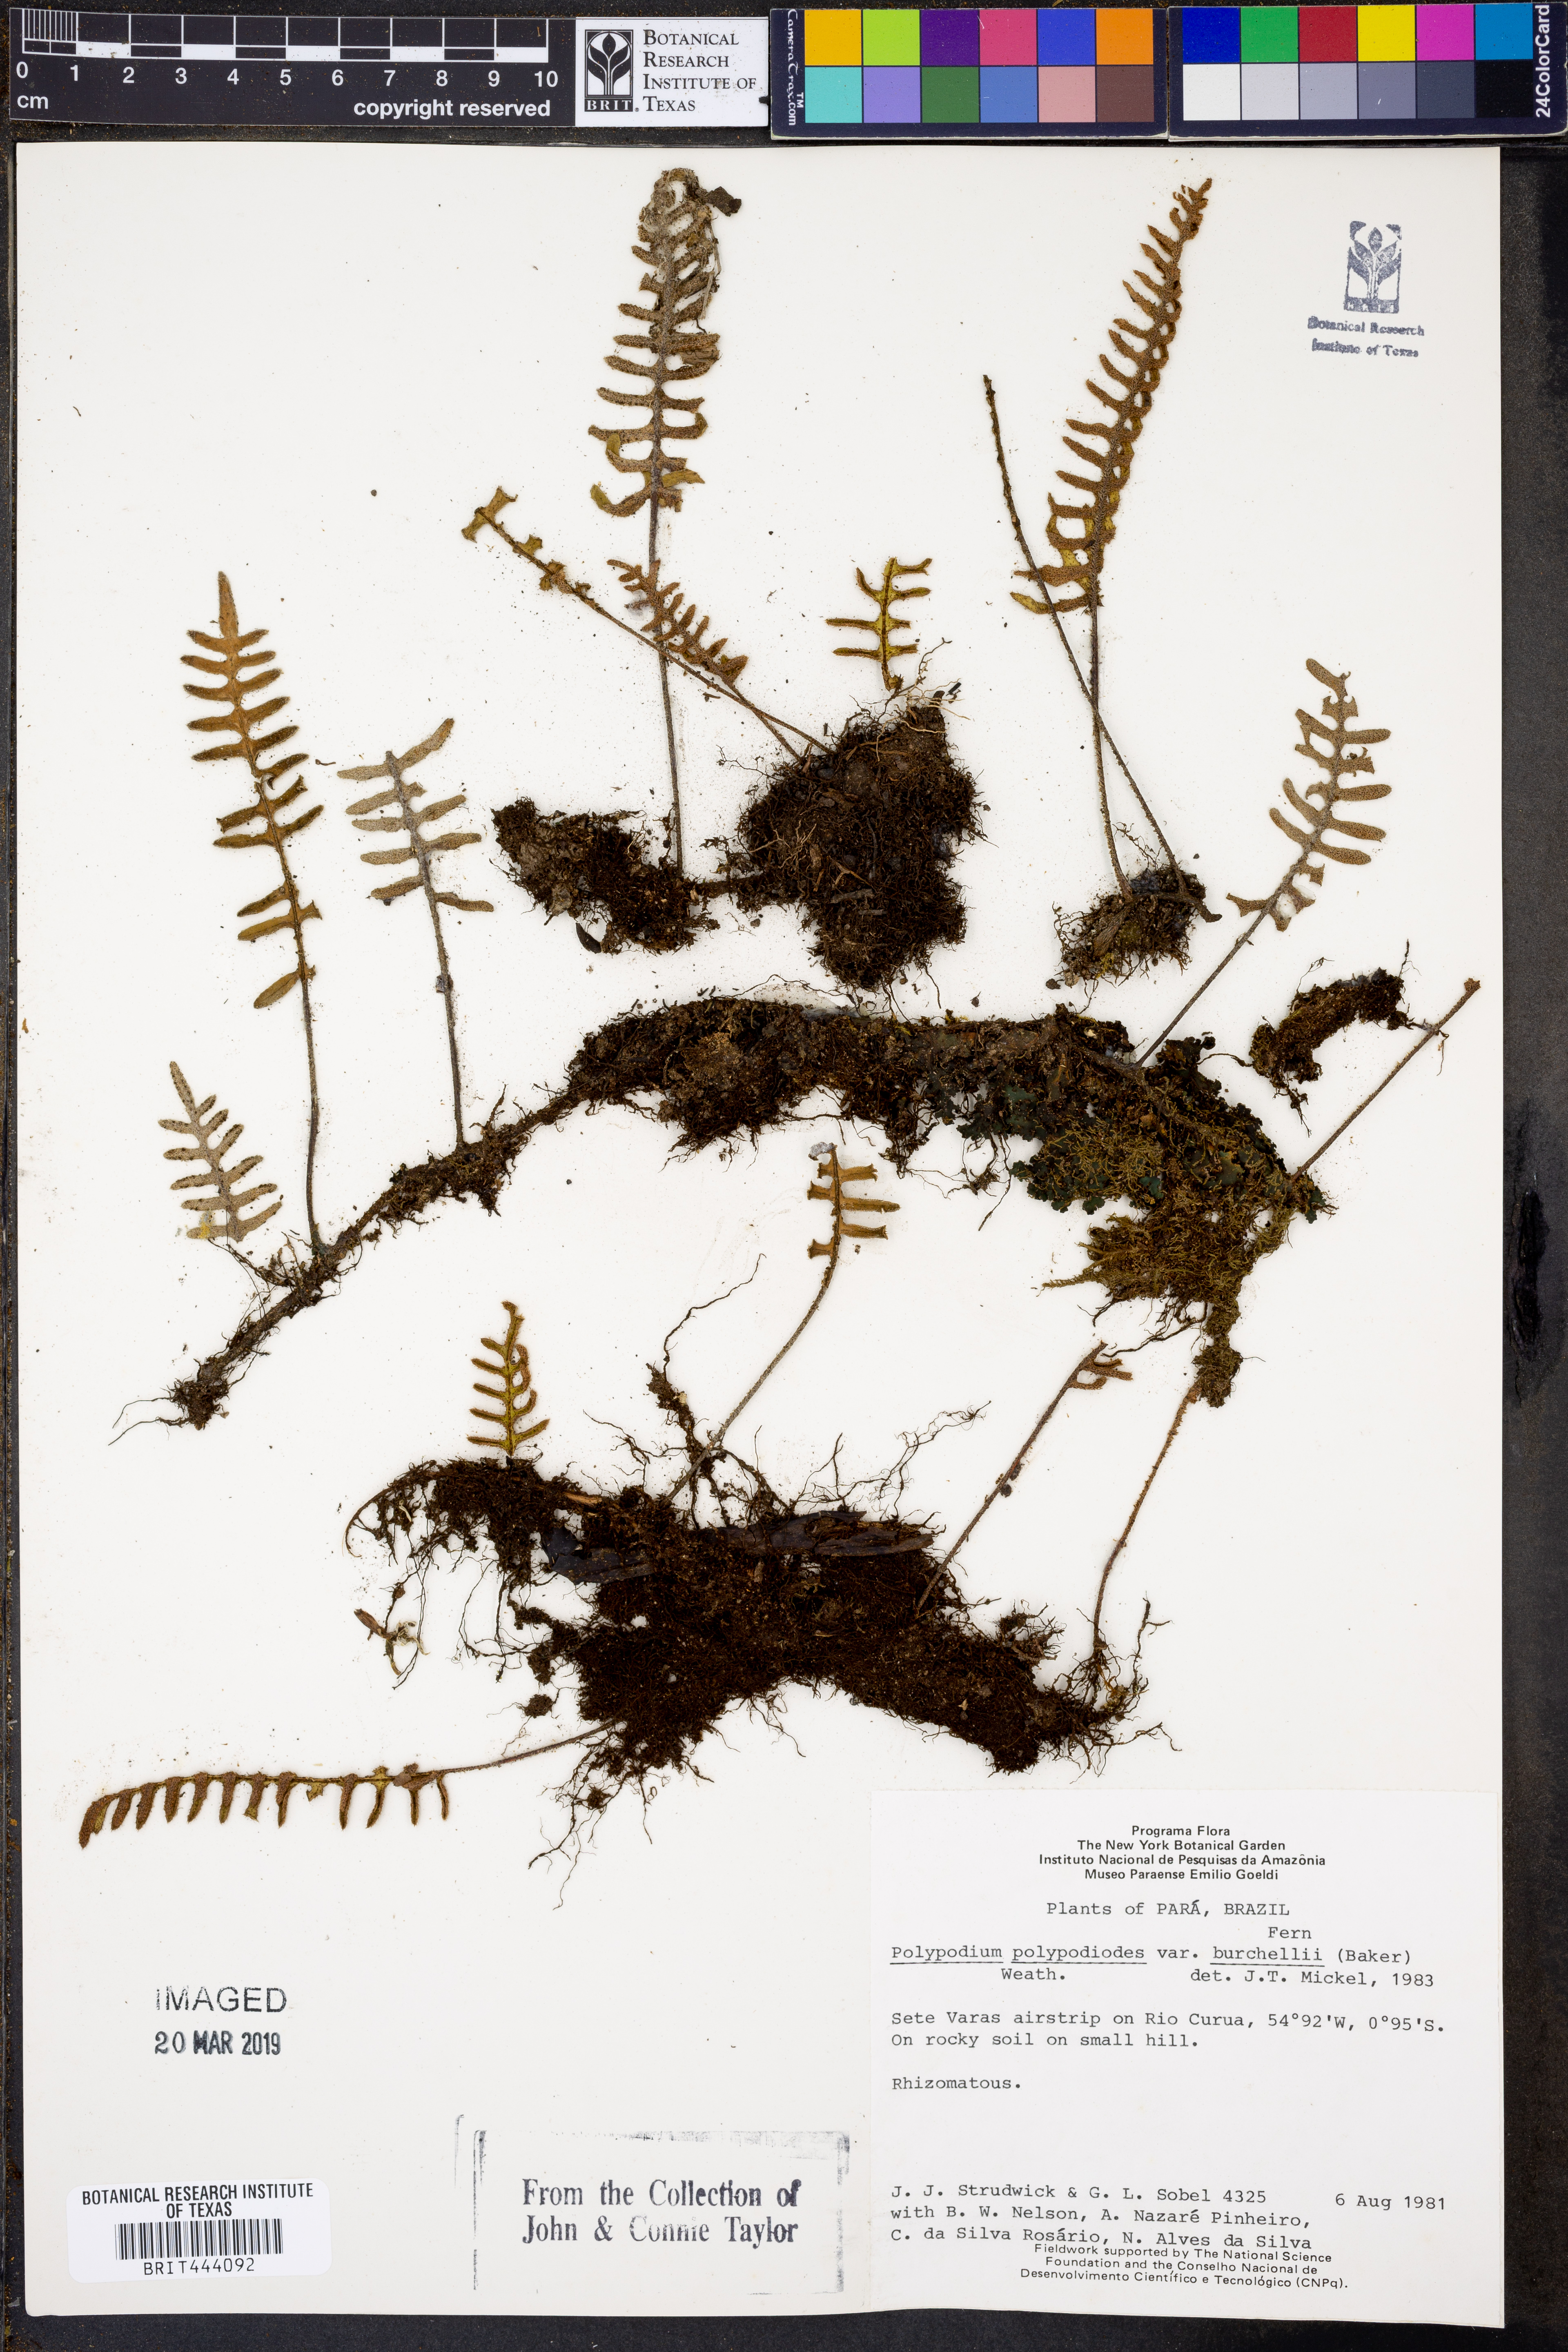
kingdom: Plantae
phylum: Tracheophyta
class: Polypodiopsida
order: Polypodiales
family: Polypodiaceae
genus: Pleopeltis
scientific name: Pleopeltis burchellii
